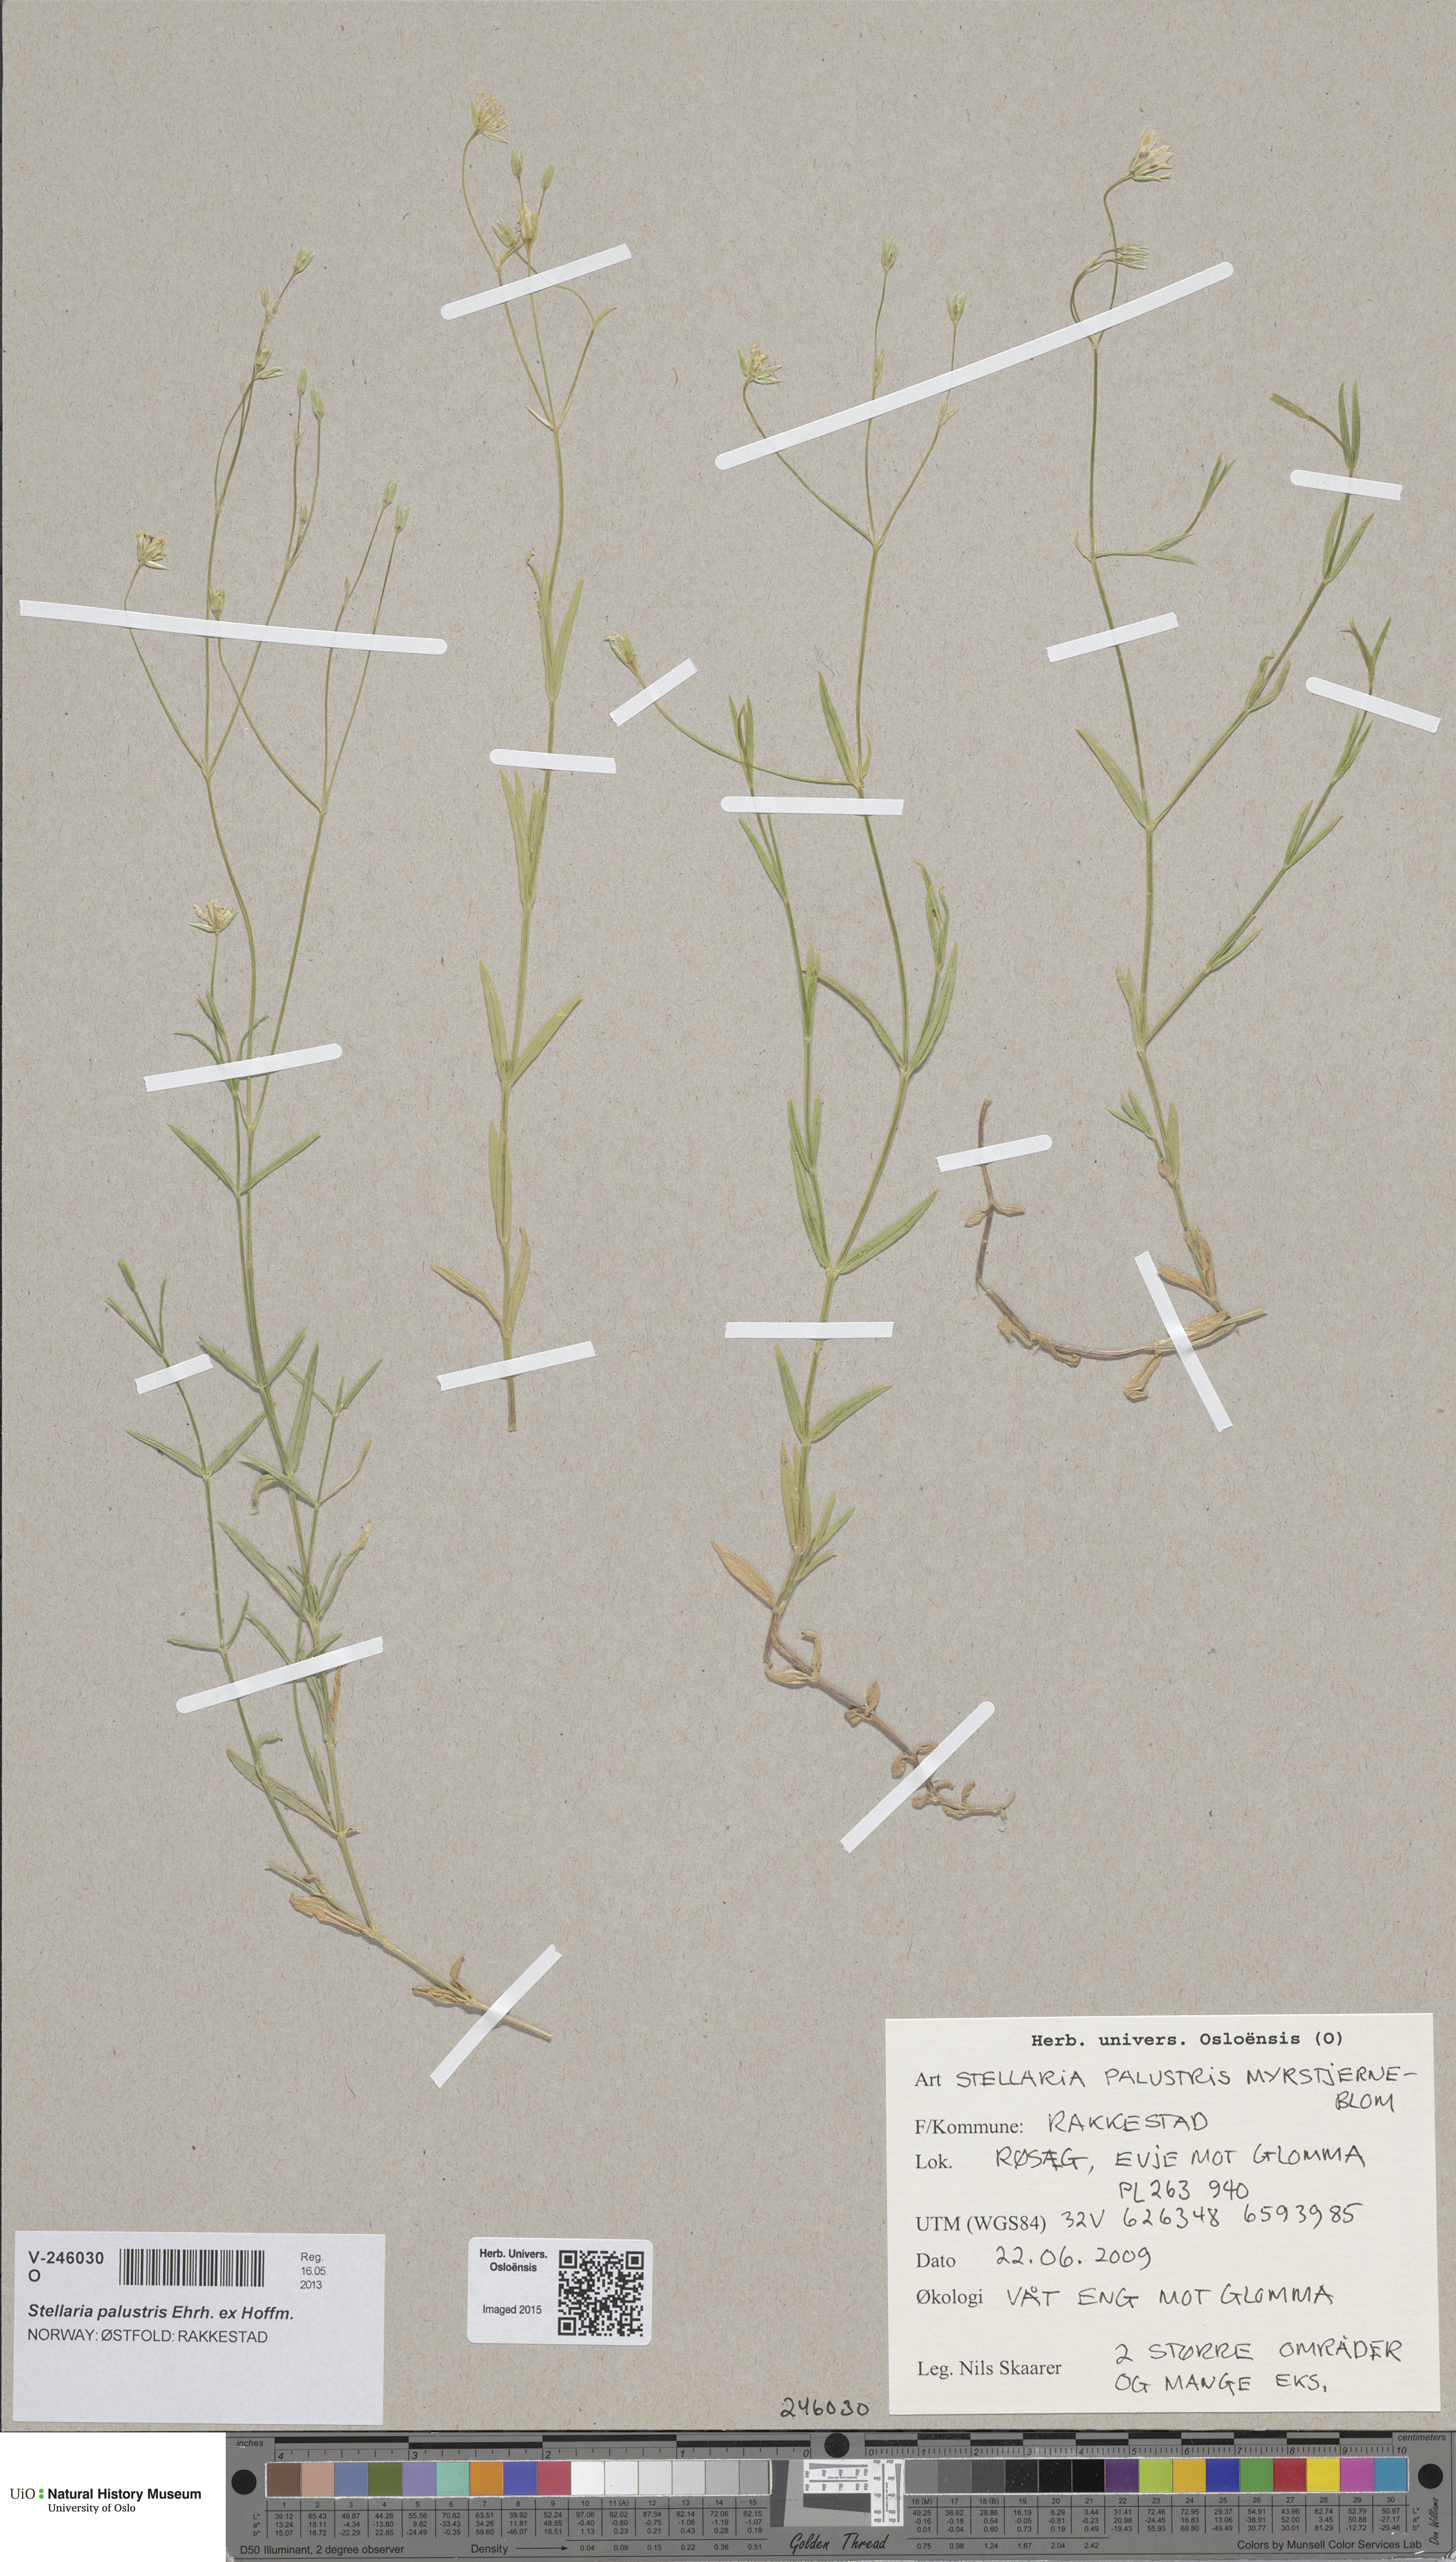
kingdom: Plantae
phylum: Tracheophyta
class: Magnoliopsida
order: Caryophyllales
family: Caryophyllaceae
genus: Stellaria
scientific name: Stellaria palustris
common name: Marsh stitchwort
